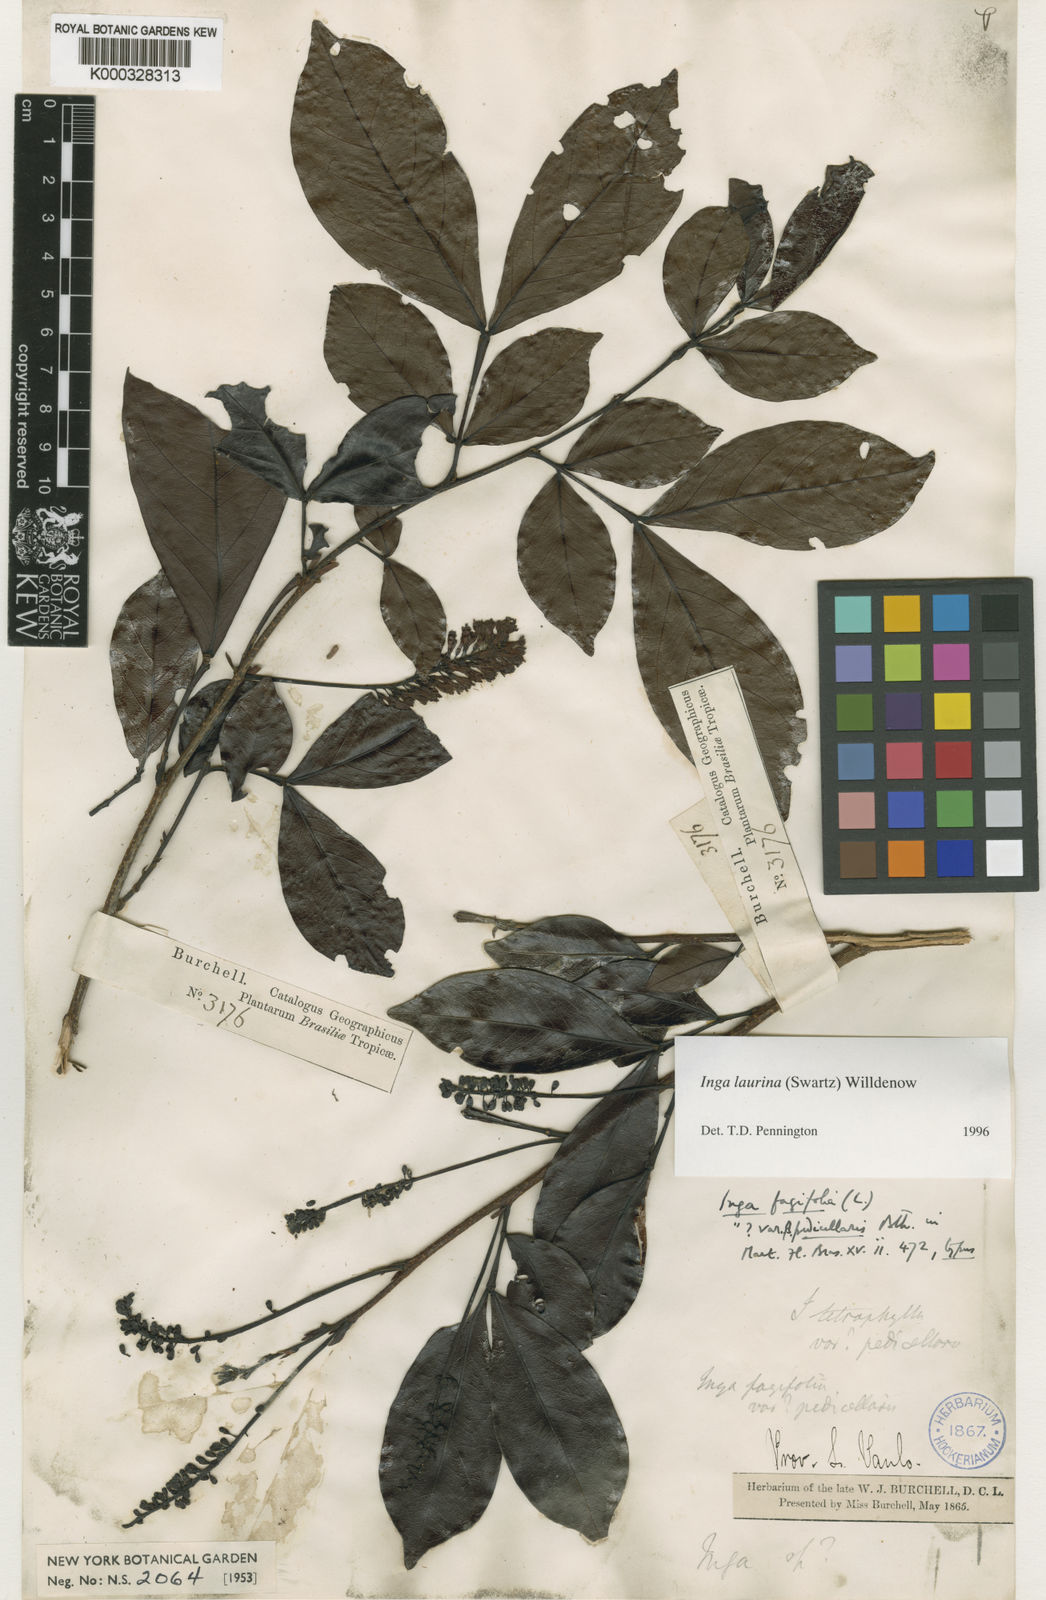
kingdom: Plantae
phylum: Tracheophyta
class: Magnoliopsida
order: Fabales
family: Fabaceae
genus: Inga
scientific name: Inga laurina
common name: Red wood
